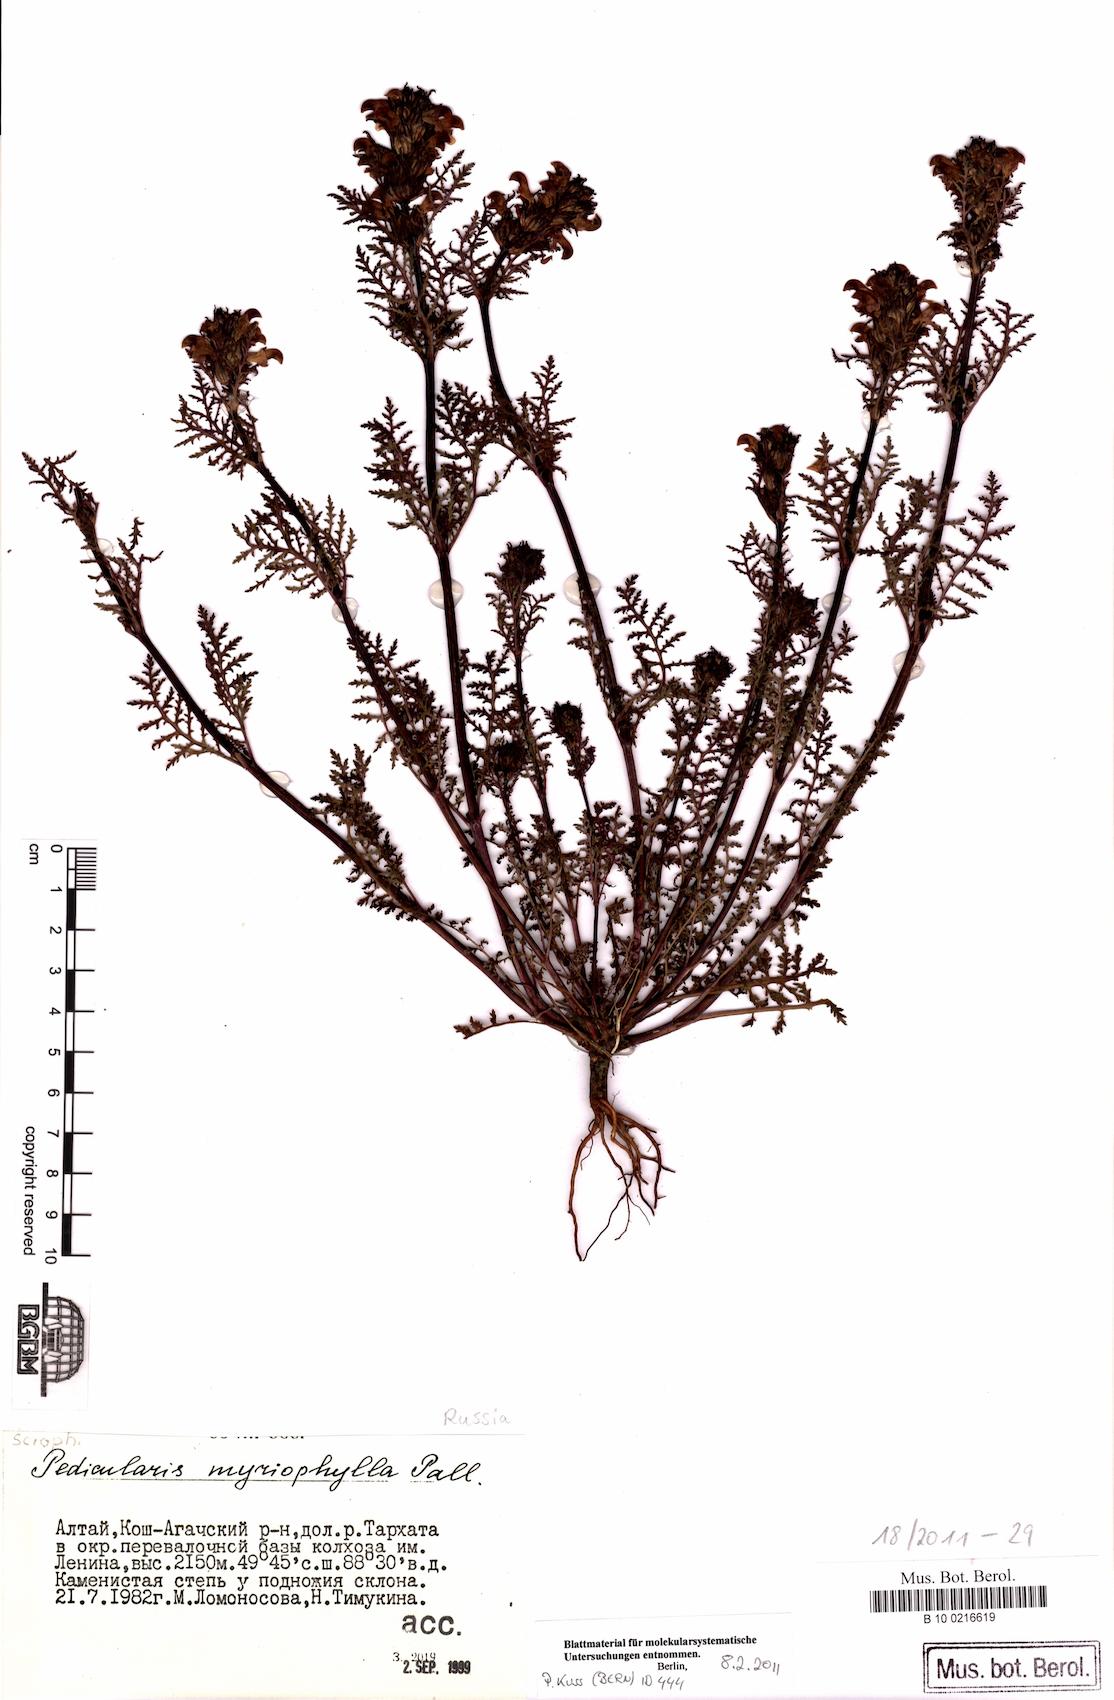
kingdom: Plantae
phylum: Tracheophyta
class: Magnoliopsida
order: Lamiales
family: Orobanchaceae
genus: Pedicularis
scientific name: Pedicularis myriophylla
